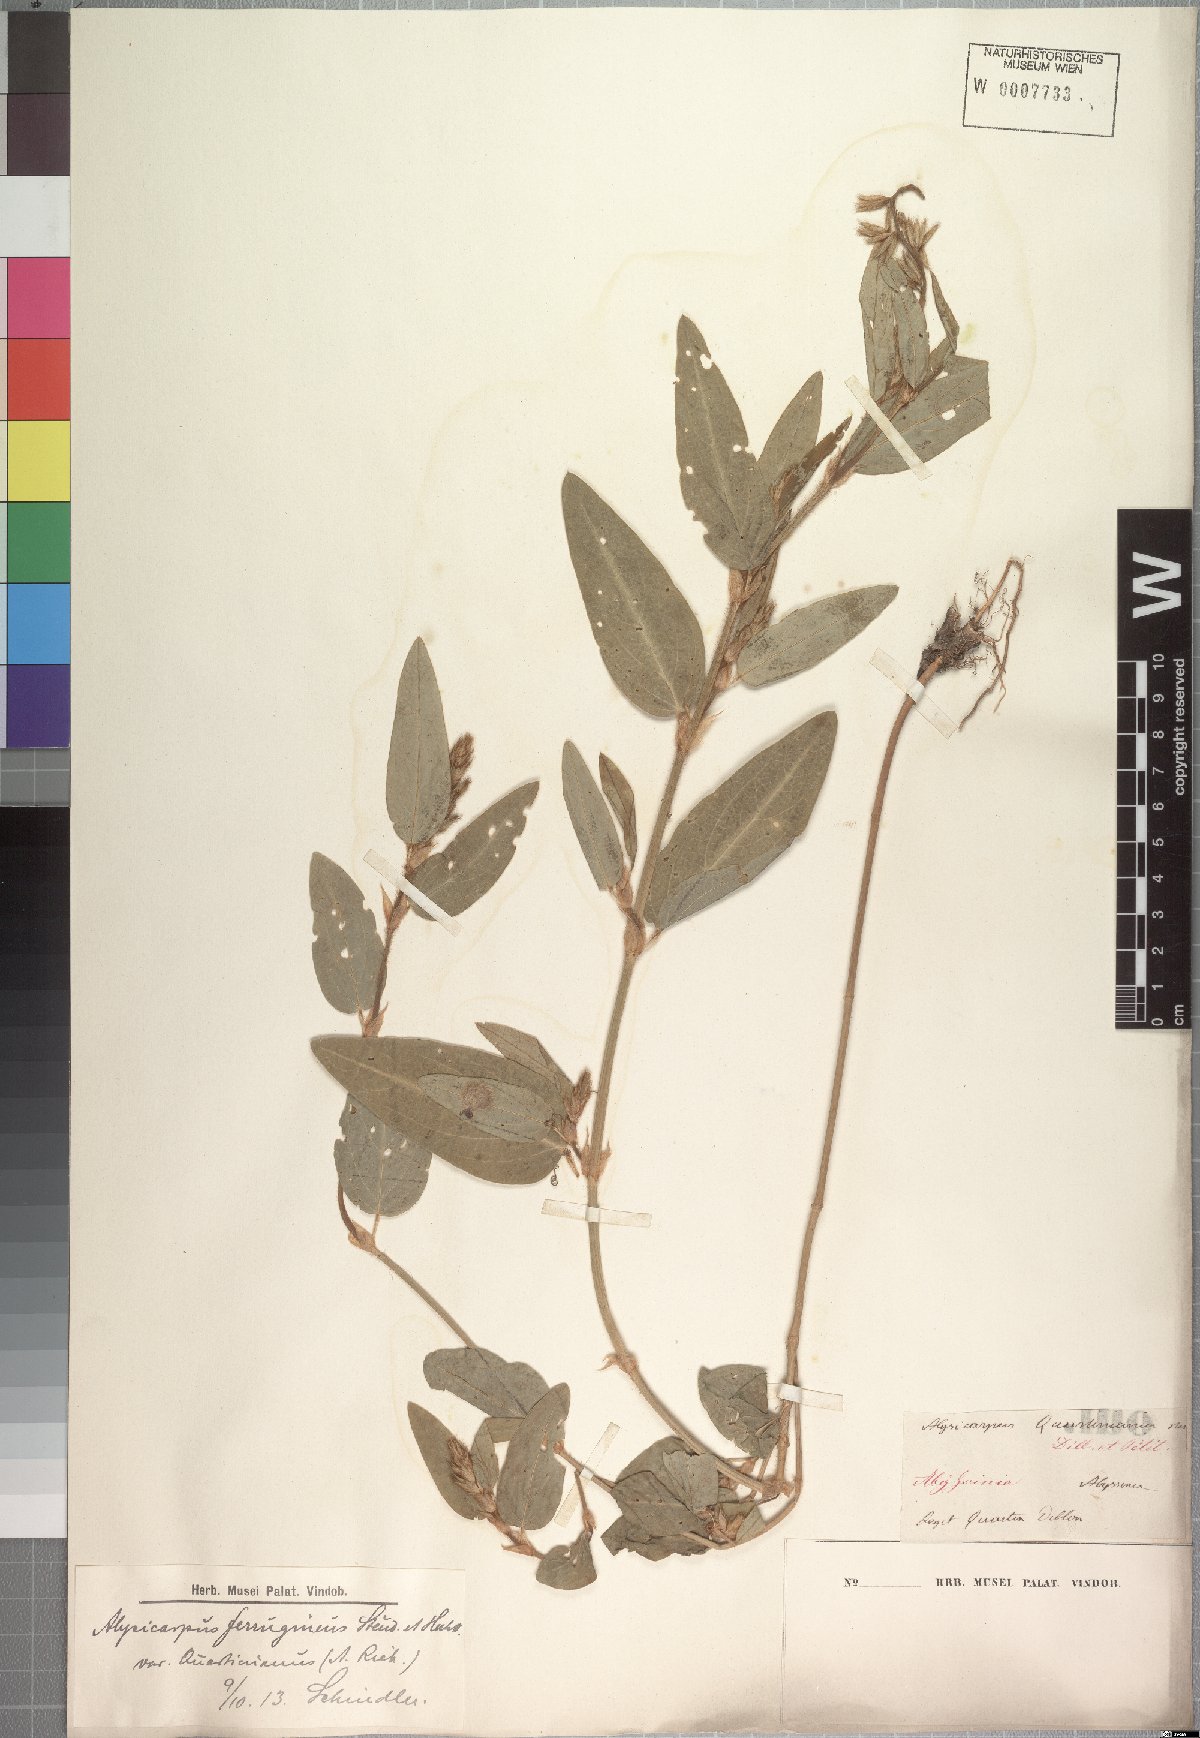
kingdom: Plantae
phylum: Tracheophyta
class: Magnoliopsida
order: Fabales
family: Fabaceae
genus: Alysicarpus
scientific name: Alysicarpus quartinianus
